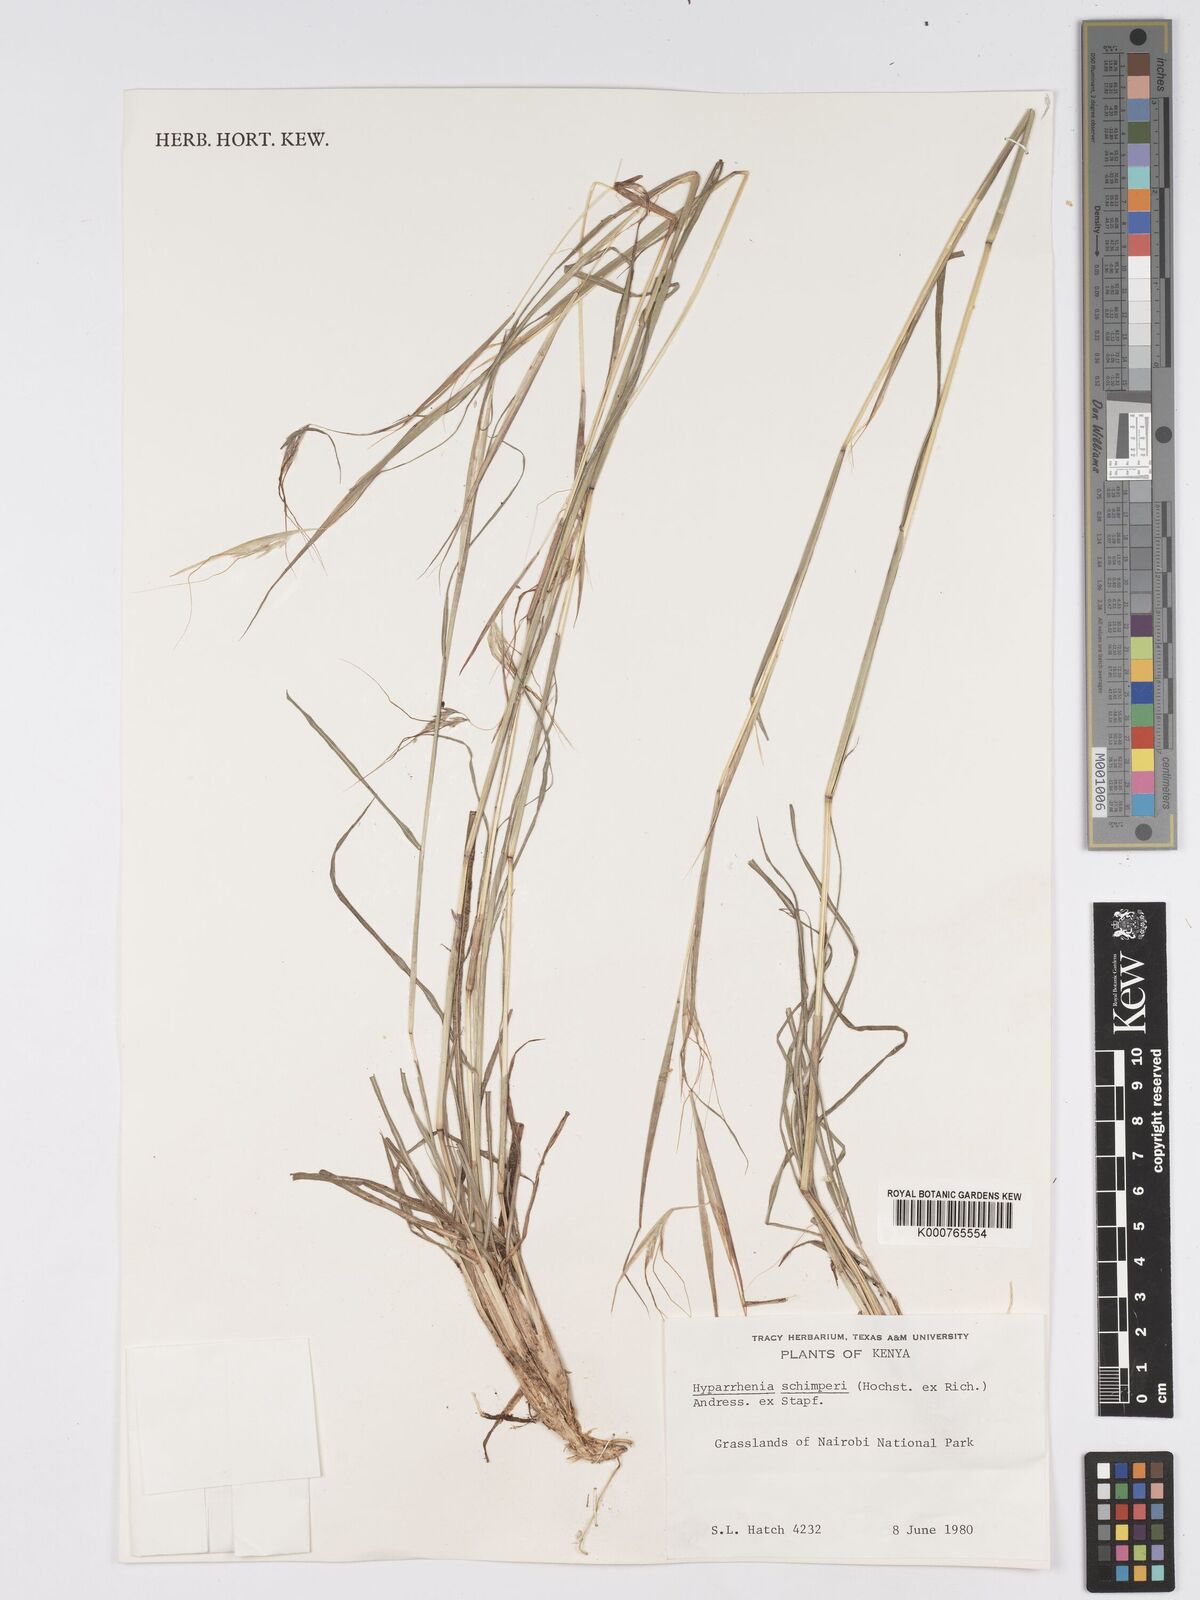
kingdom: Plantae
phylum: Tracheophyta
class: Liliopsida
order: Poales
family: Poaceae
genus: Hyparrhenia
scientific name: Hyparrhenia filipendula
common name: Tambookie grass
